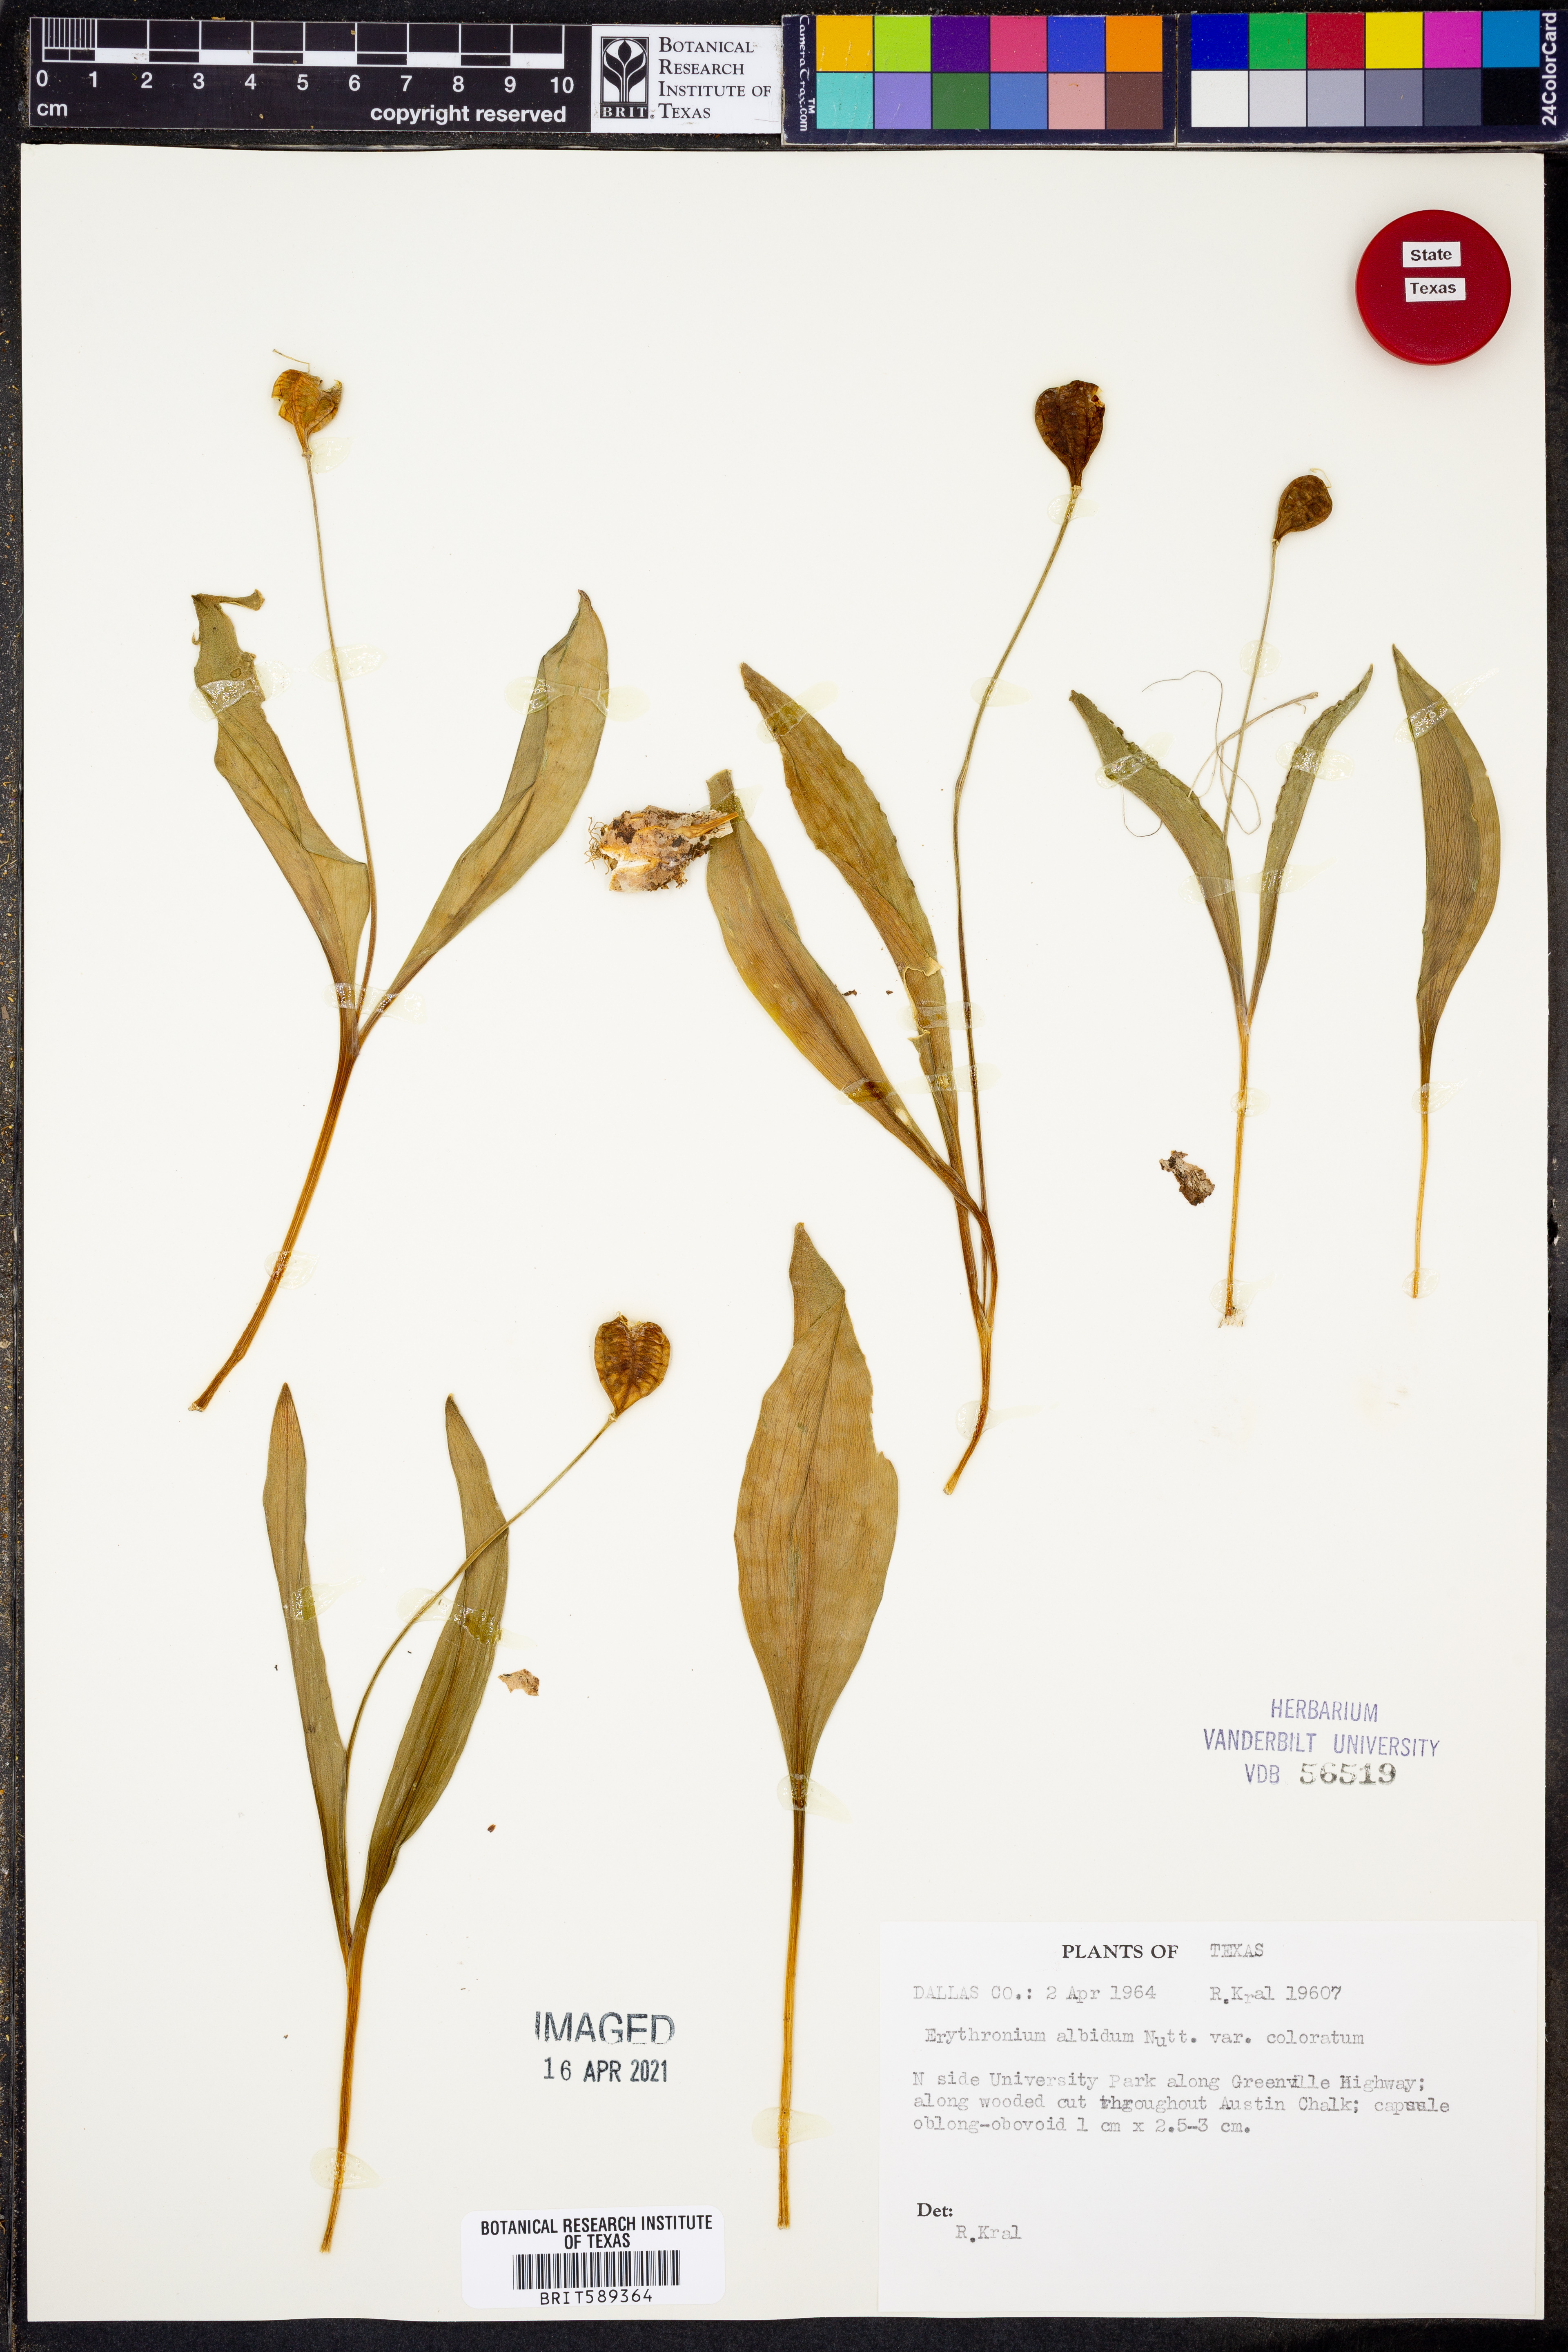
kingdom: Plantae
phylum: Tracheophyta
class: Liliopsida
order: Liliales
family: Liliaceae
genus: Erythronium
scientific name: Erythronium albidum
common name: White trout-lily
